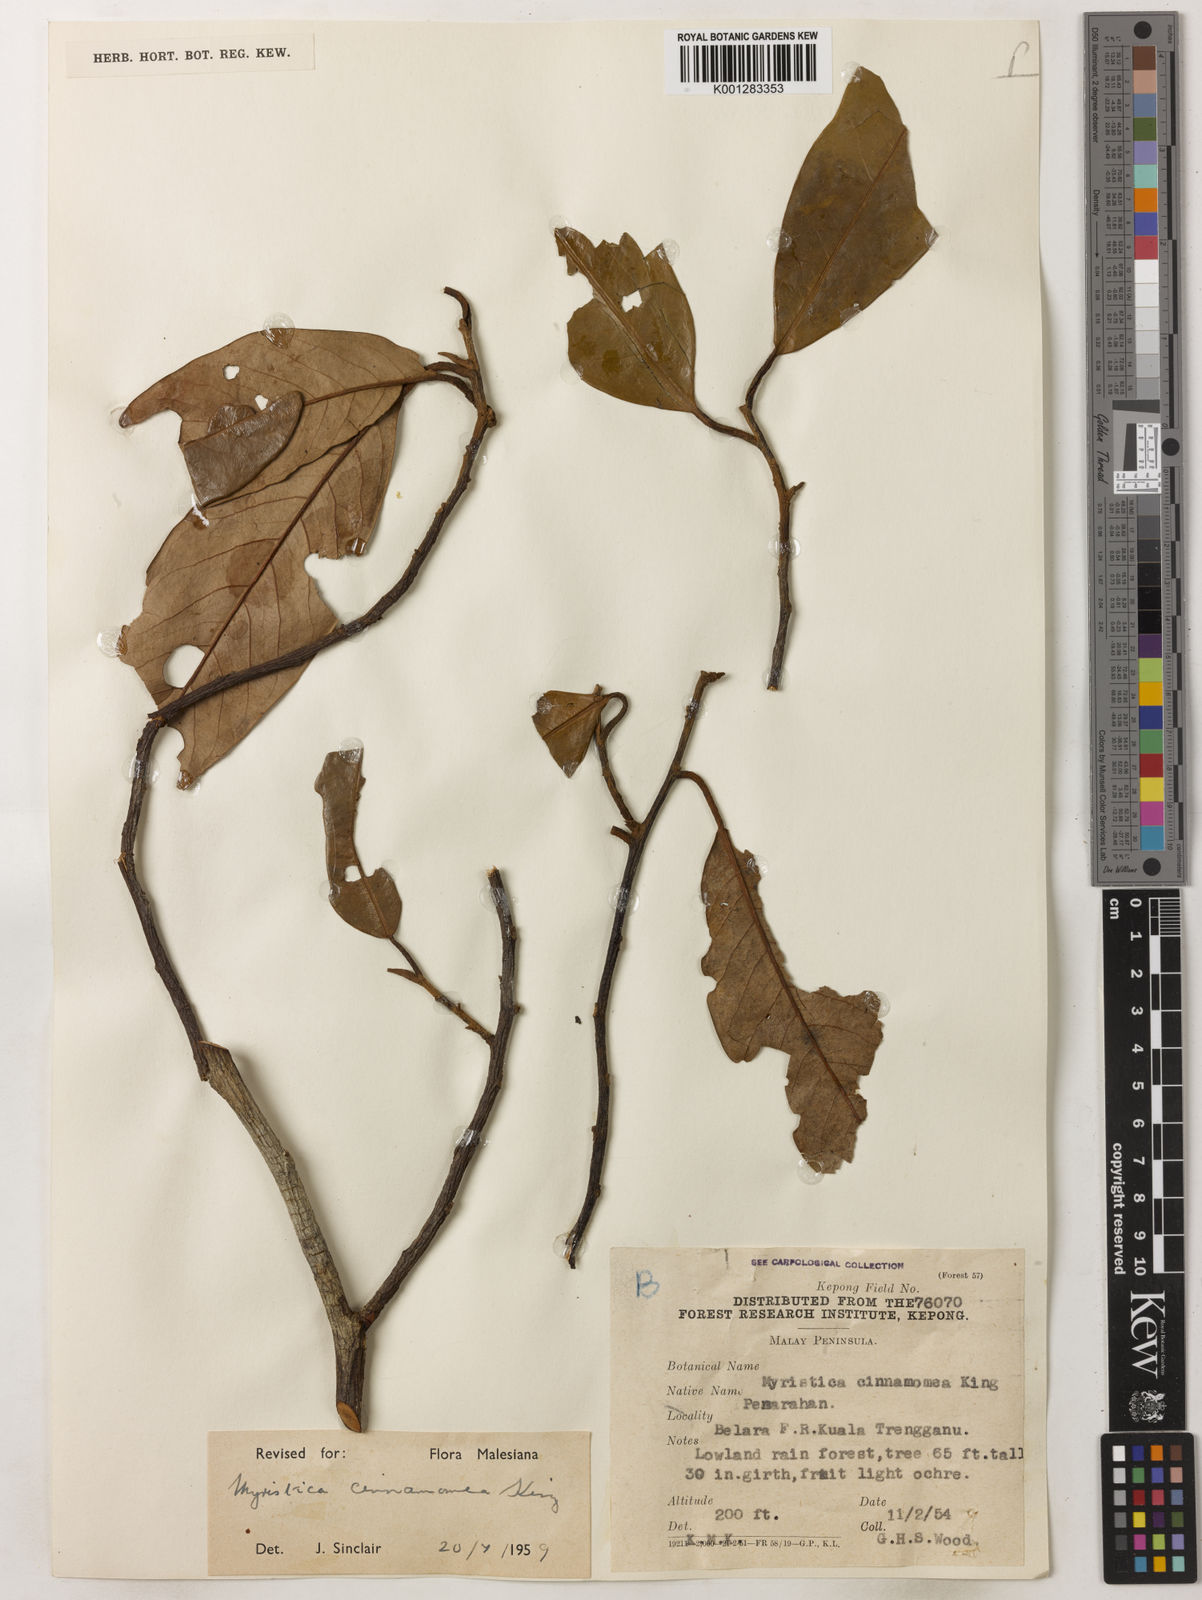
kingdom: Plantae
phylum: Tracheophyta
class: Magnoliopsida
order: Magnoliales
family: Myristicaceae
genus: Myristica
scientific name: Myristica cinnamomea
